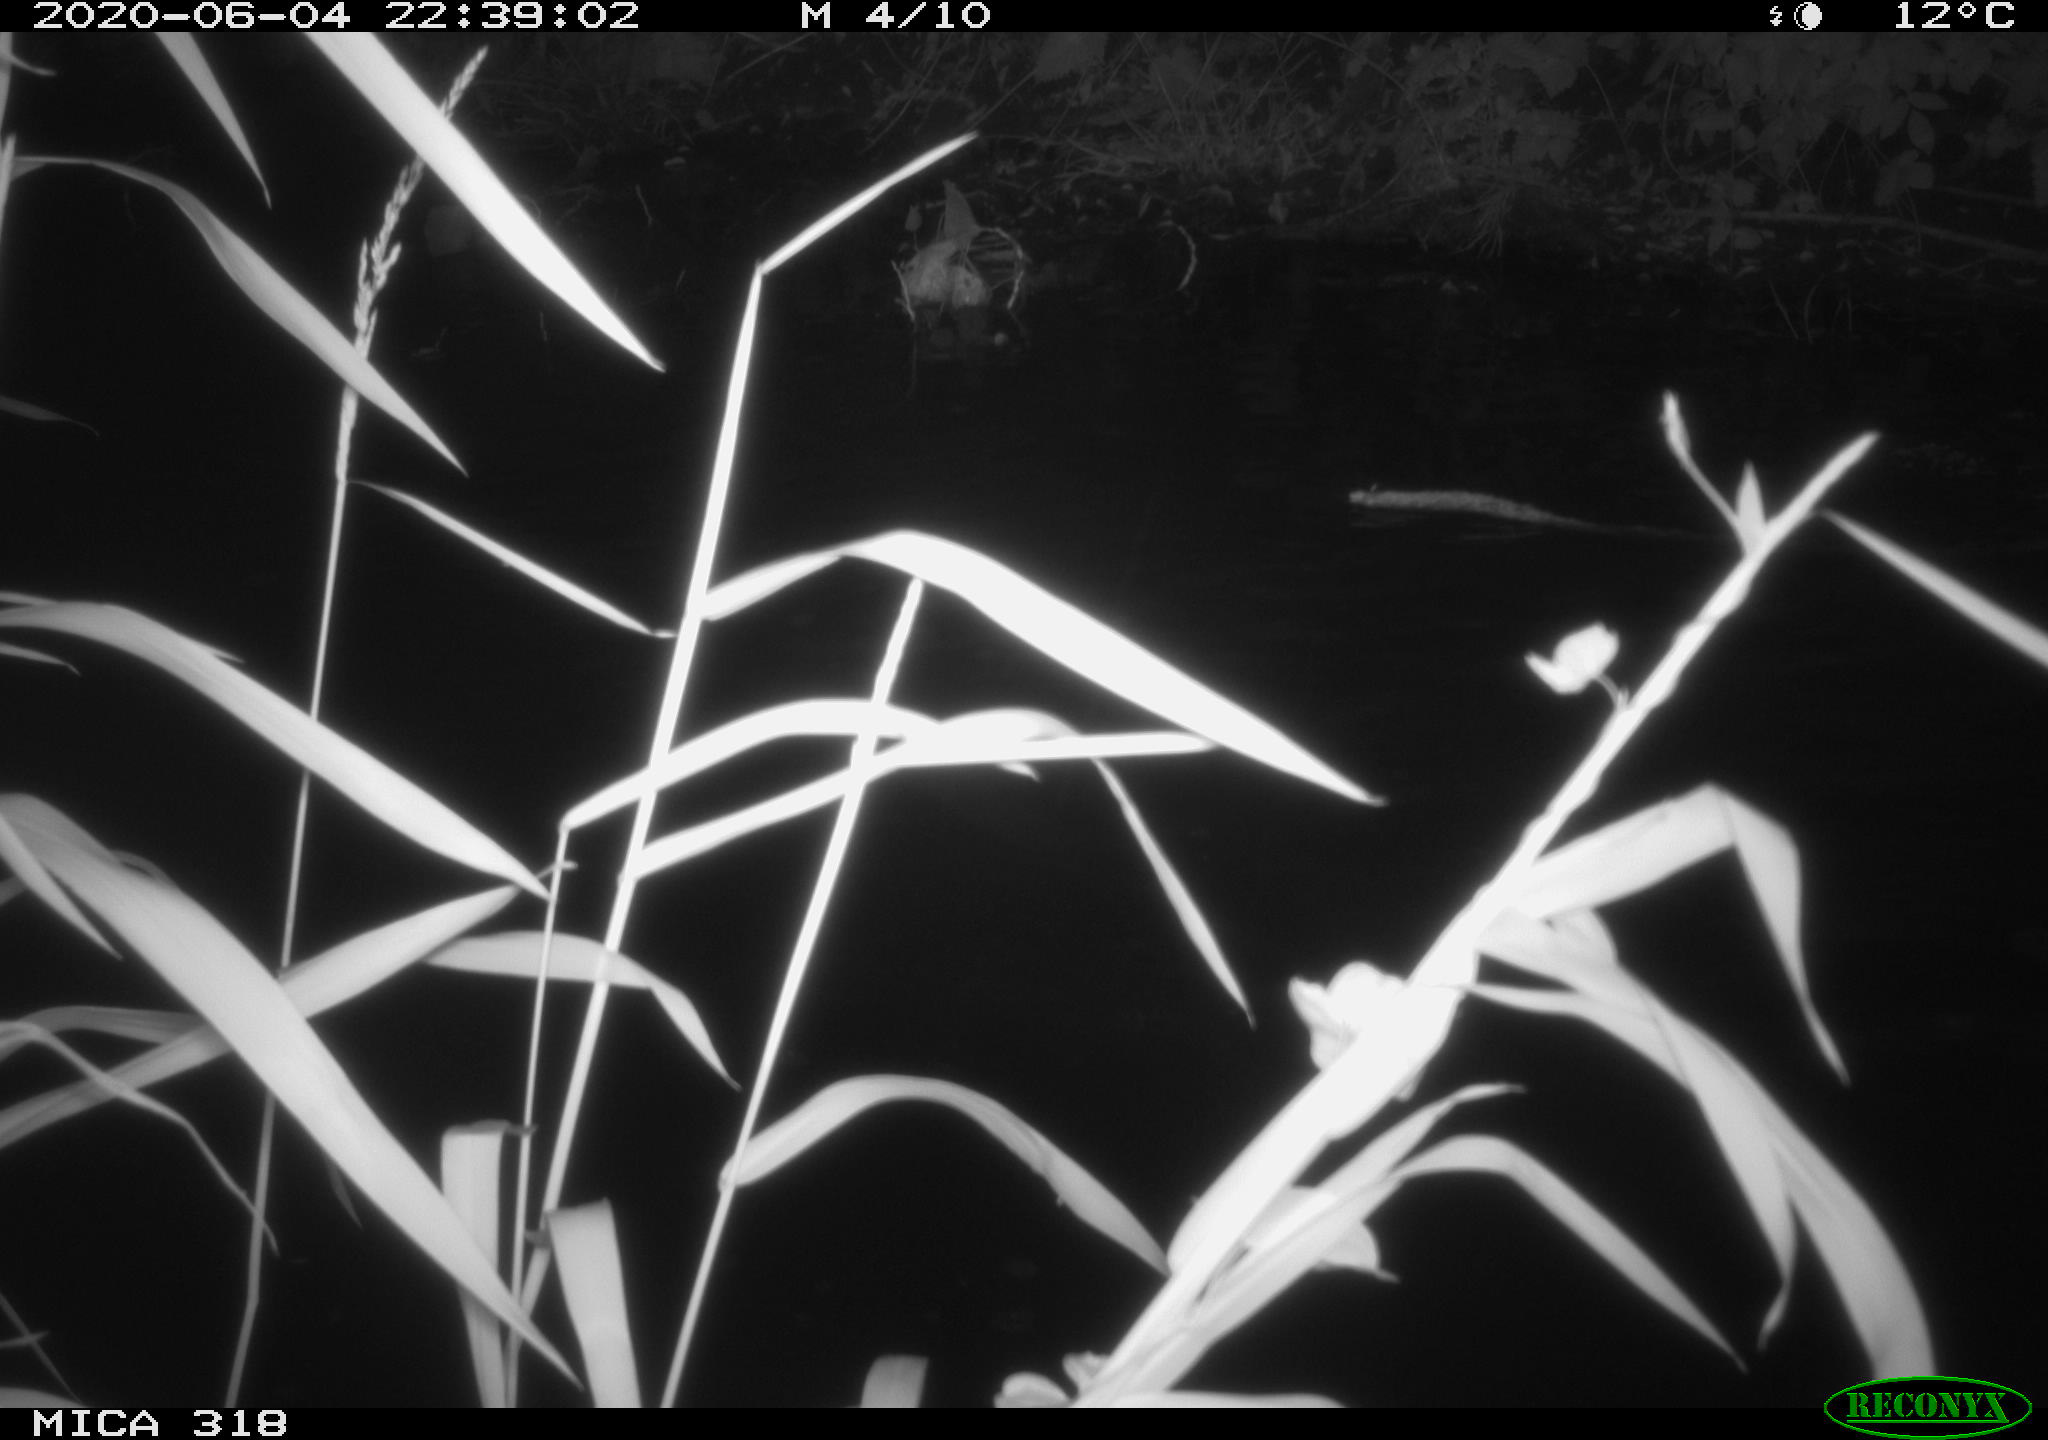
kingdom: Animalia
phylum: Chordata
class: Aves
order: Anseriformes
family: Anatidae
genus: Anas
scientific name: Anas platyrhynchos
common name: Mallard
